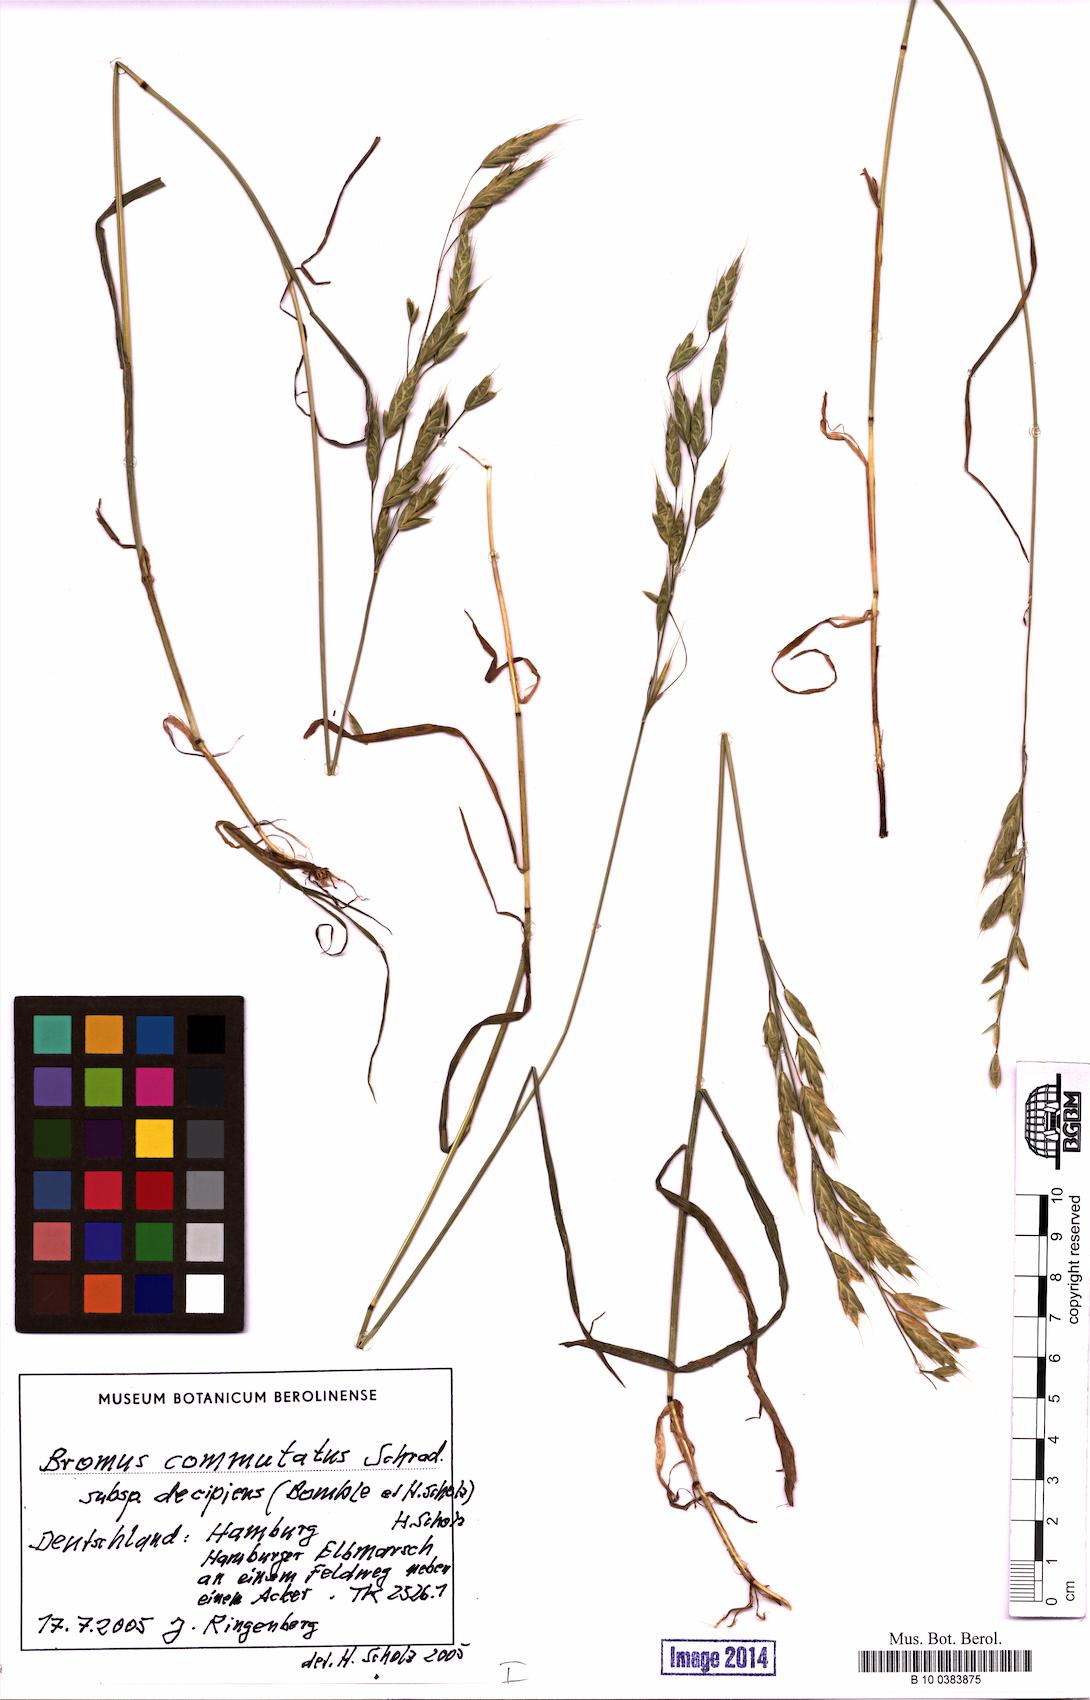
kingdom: Plantae
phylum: Tracheophyta
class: Liliopsida
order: Poales
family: Poaceae
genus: Bromus
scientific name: Bromus commutatus
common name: Meadow brome
